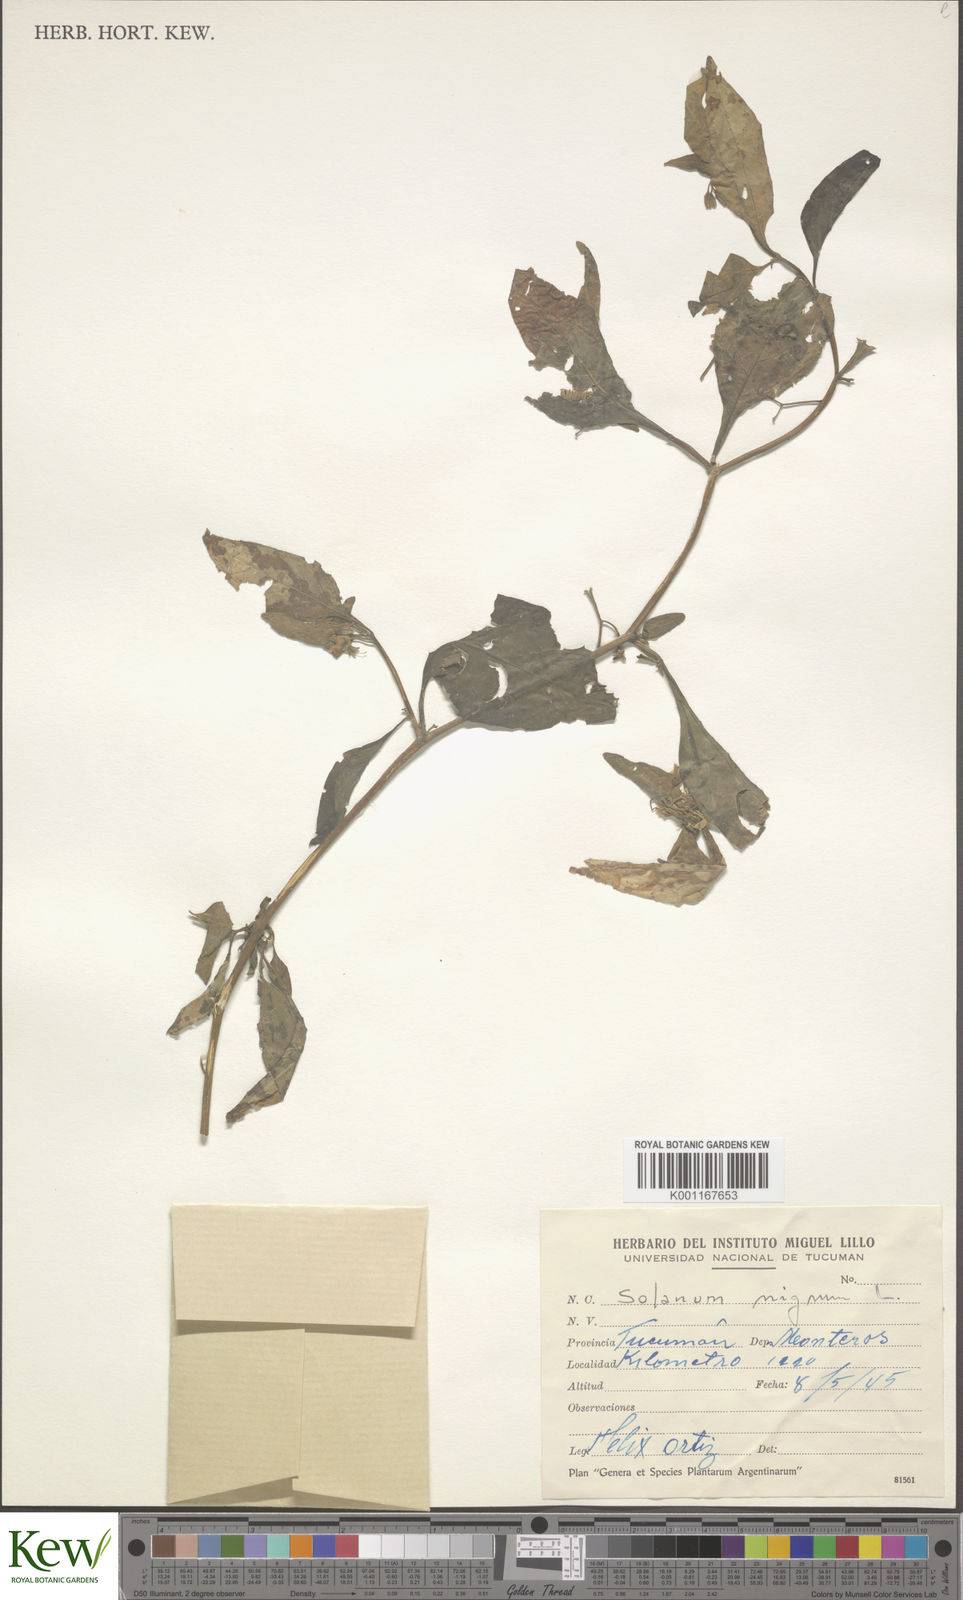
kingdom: Plantae
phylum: Tracheophyta
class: Magnoliopsida
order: Solanales
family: Solanaceae
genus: Solanum
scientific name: Solanum aloysiifolium
